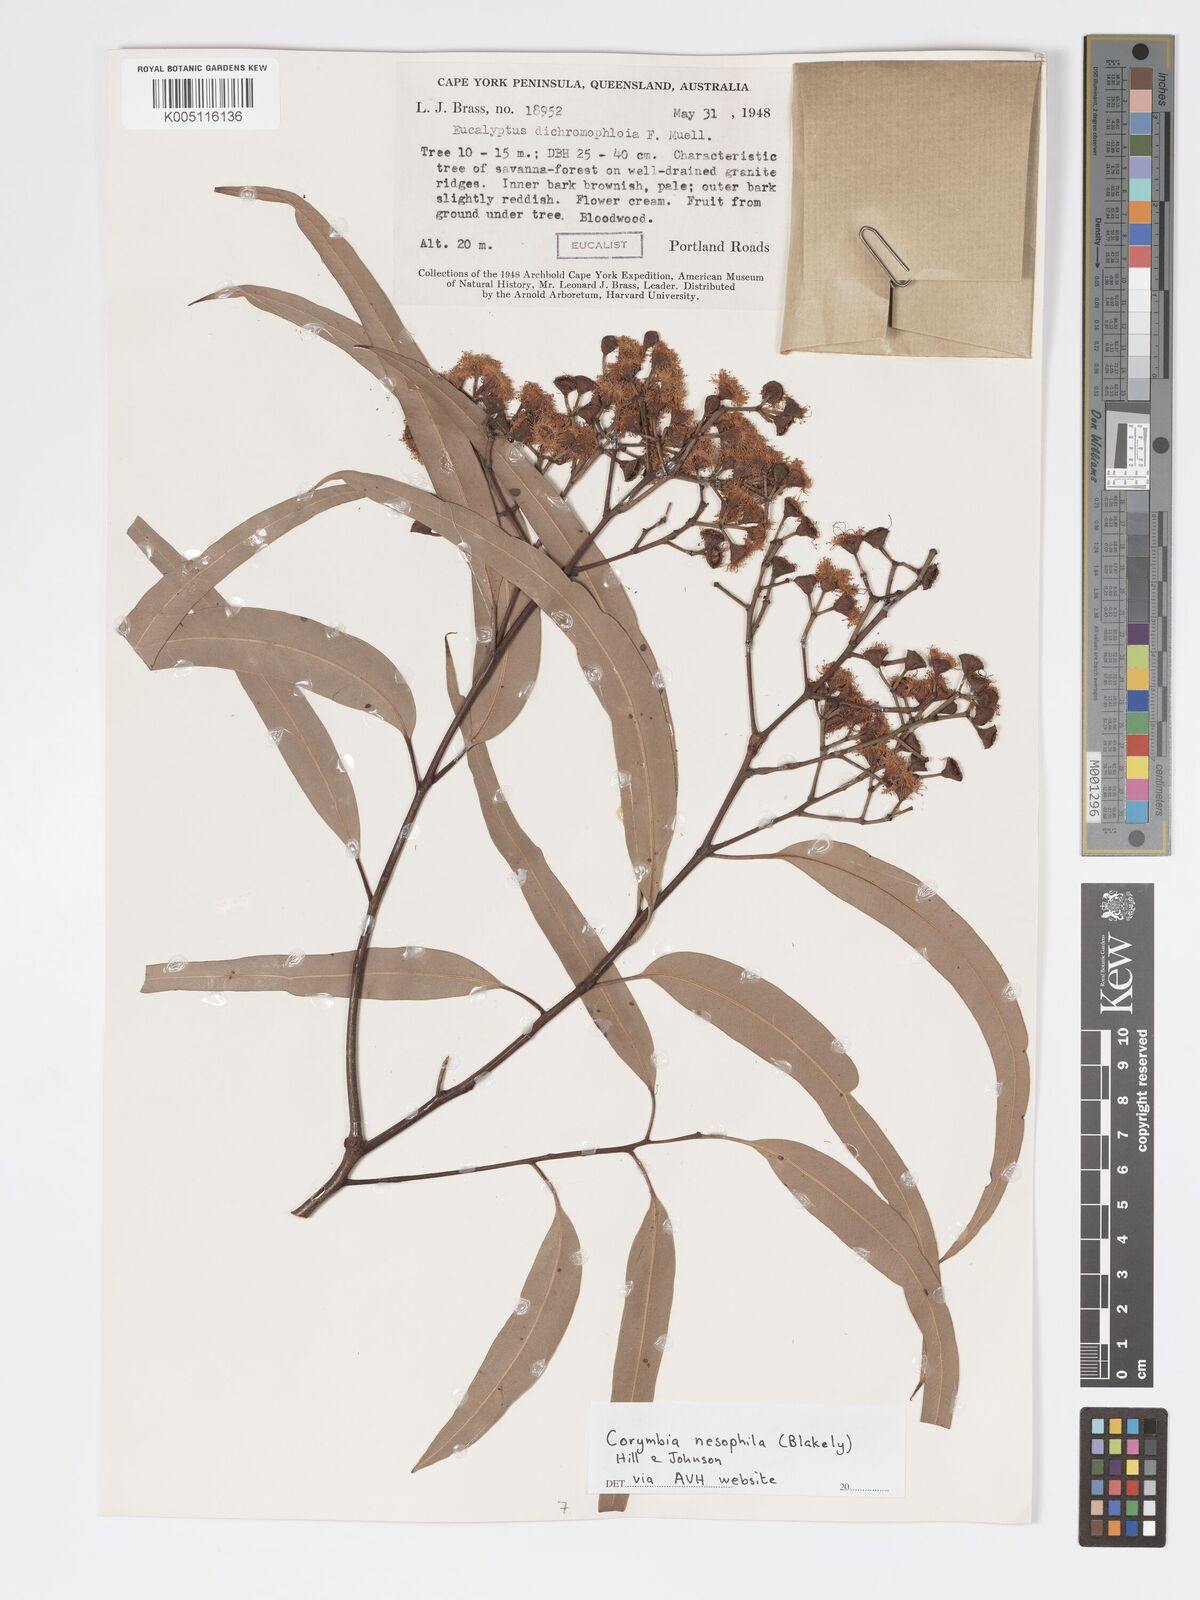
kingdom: Plantae
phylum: Tracheophyta
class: Magnoliopsida
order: Myrtales
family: Myrtaceae
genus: Corymbia
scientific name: Corymbia nesophila
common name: Melville-island-bloodwood
